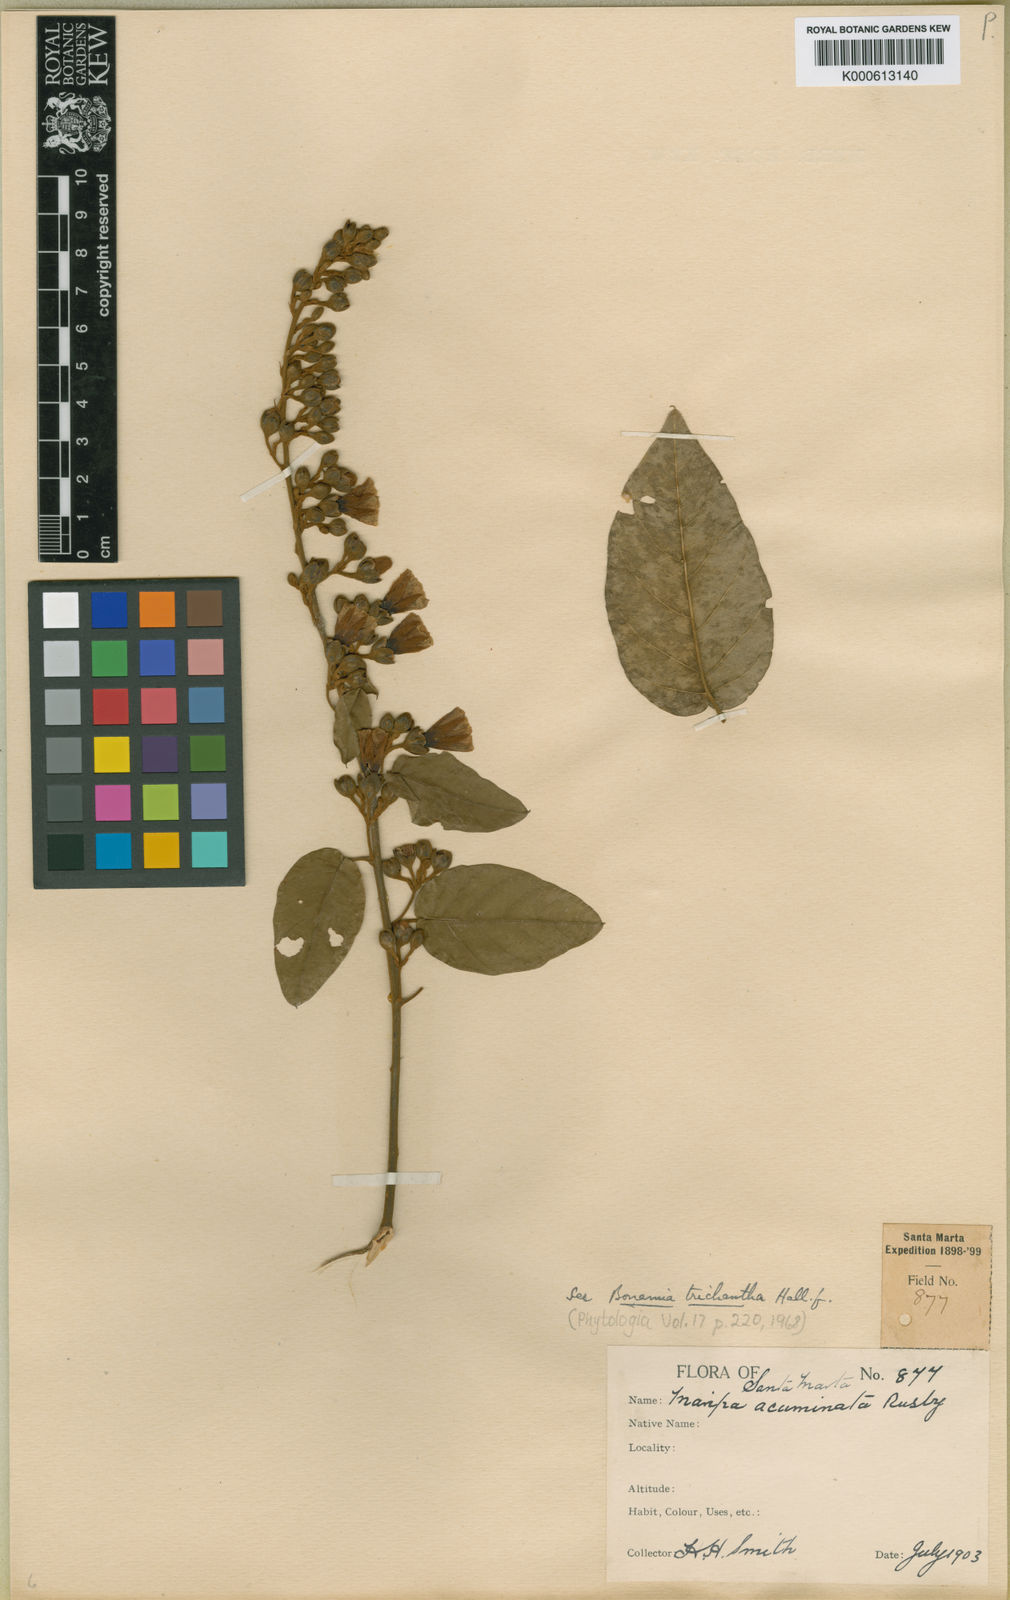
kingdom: Plantae
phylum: Tracheophyta
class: Magnoliopsida
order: Solanales
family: Convolvulaceae
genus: Bonamia
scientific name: Bonamia trichantha
